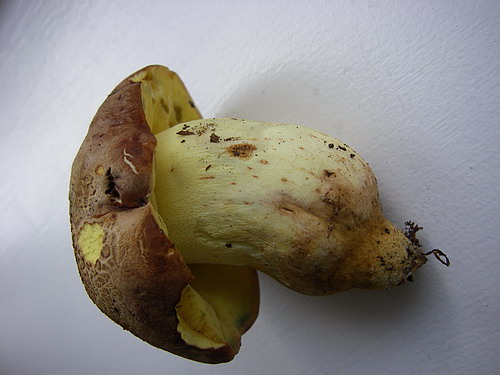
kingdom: Fungi
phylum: Basidiomycota
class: Agaricomycetes
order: Boletales
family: Boletaceae
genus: Butyriboletus
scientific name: Butyriboletus appendiculatus
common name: tenstokket rørhat
